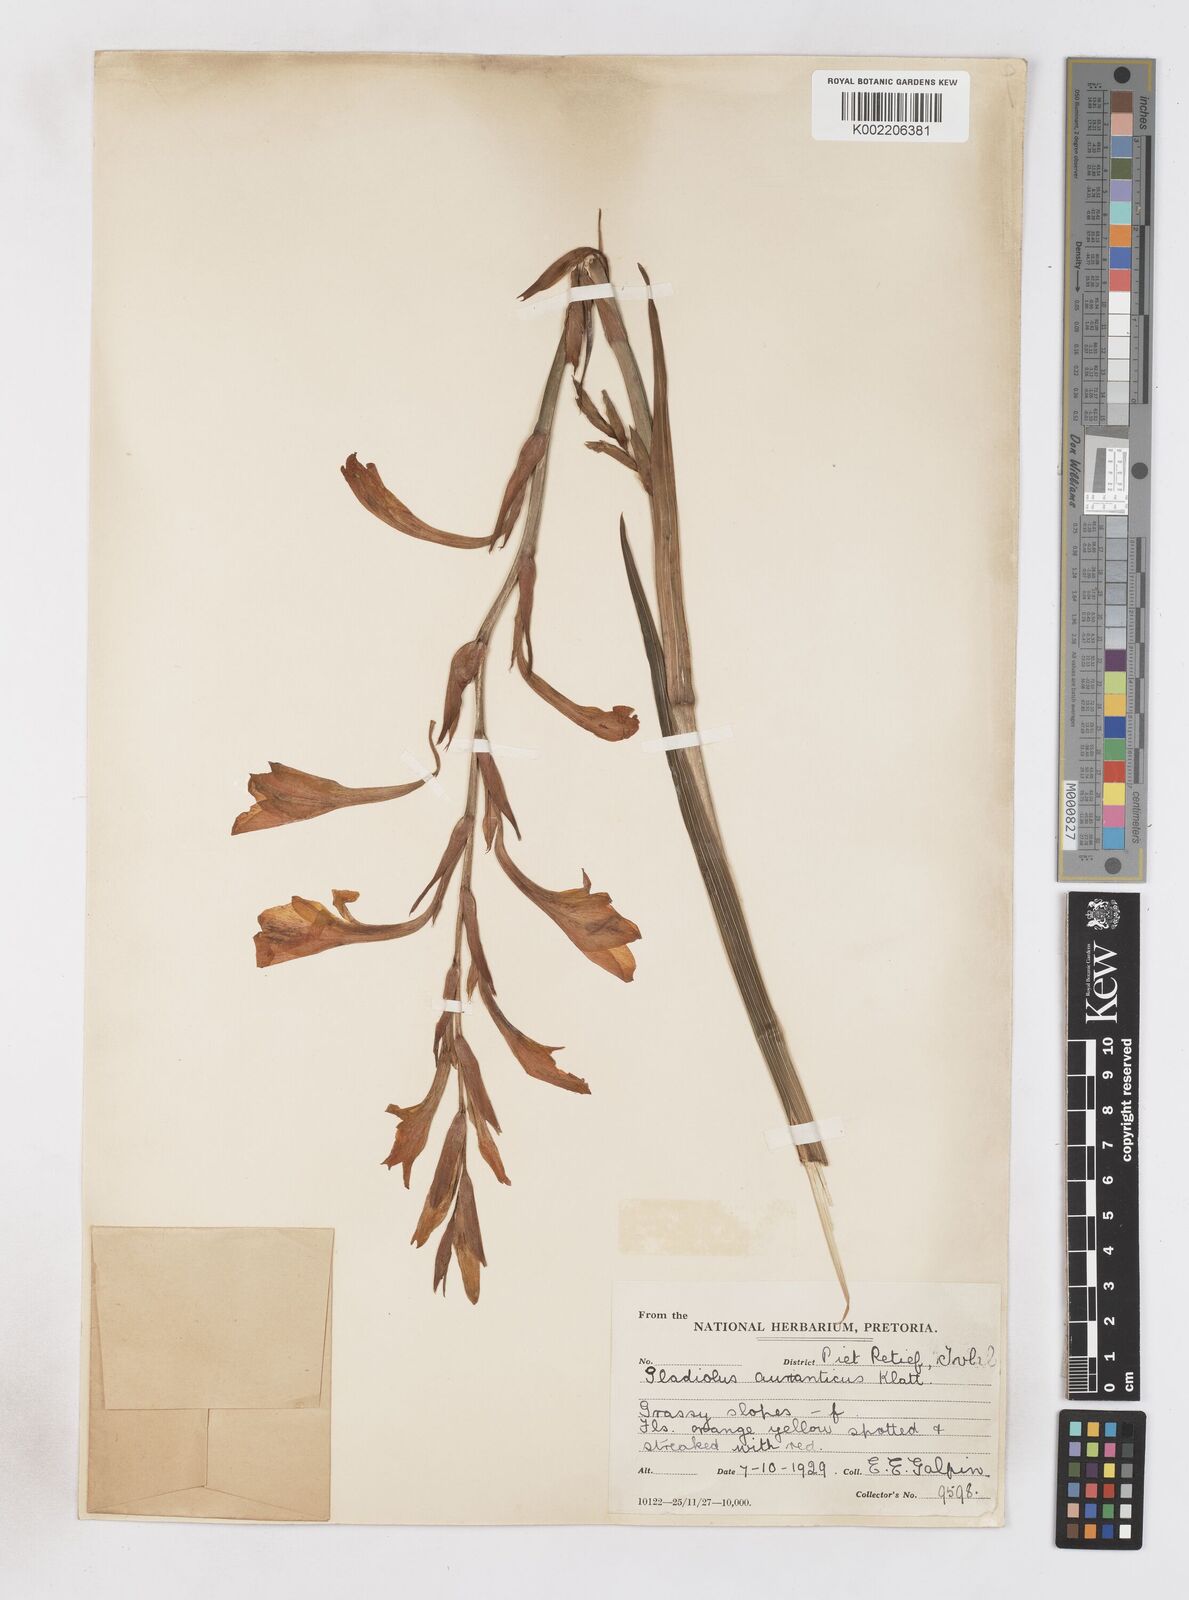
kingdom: Plantae
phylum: Tracheophyta
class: Liliopsida
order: Asparagales
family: Iridaceae
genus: Gladiolus
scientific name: Gladiolus aurantiacus
